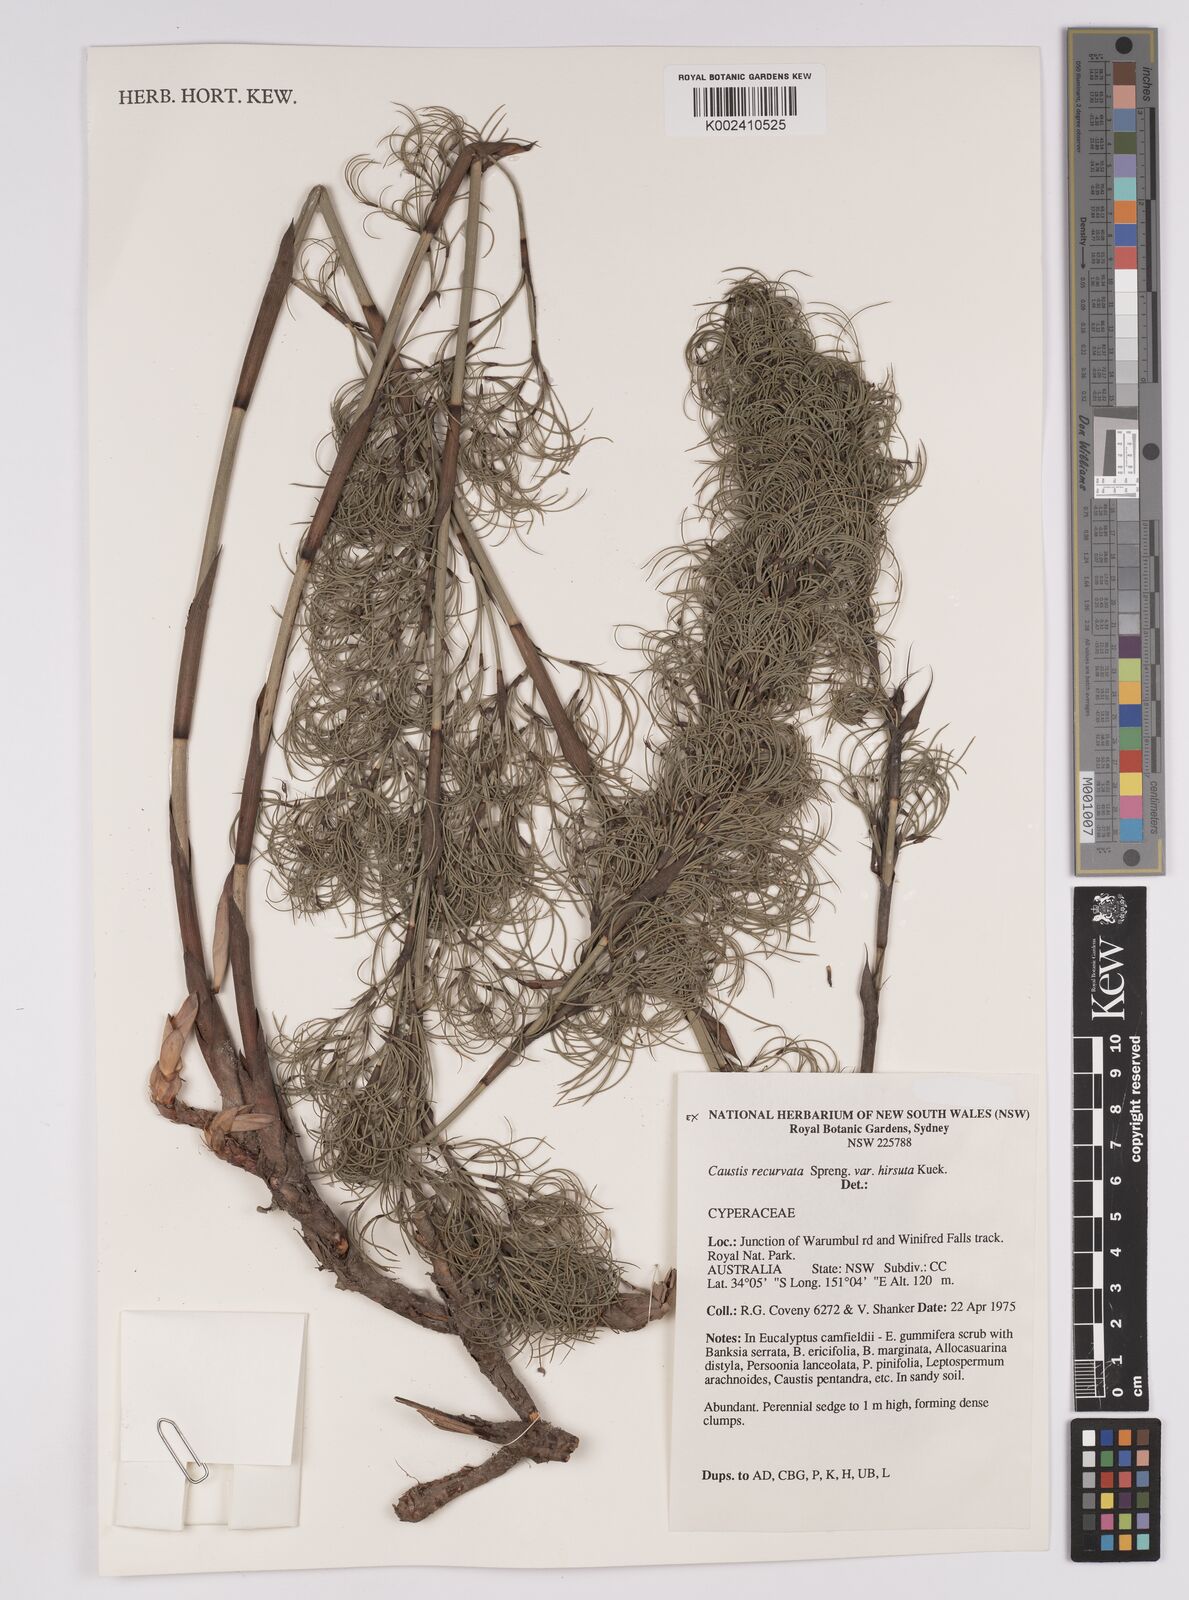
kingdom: Plantae
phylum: Tracheophyta
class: Liliopsida
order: Poales
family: Cyperaceae
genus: Caustis
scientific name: Caustis recurvata
